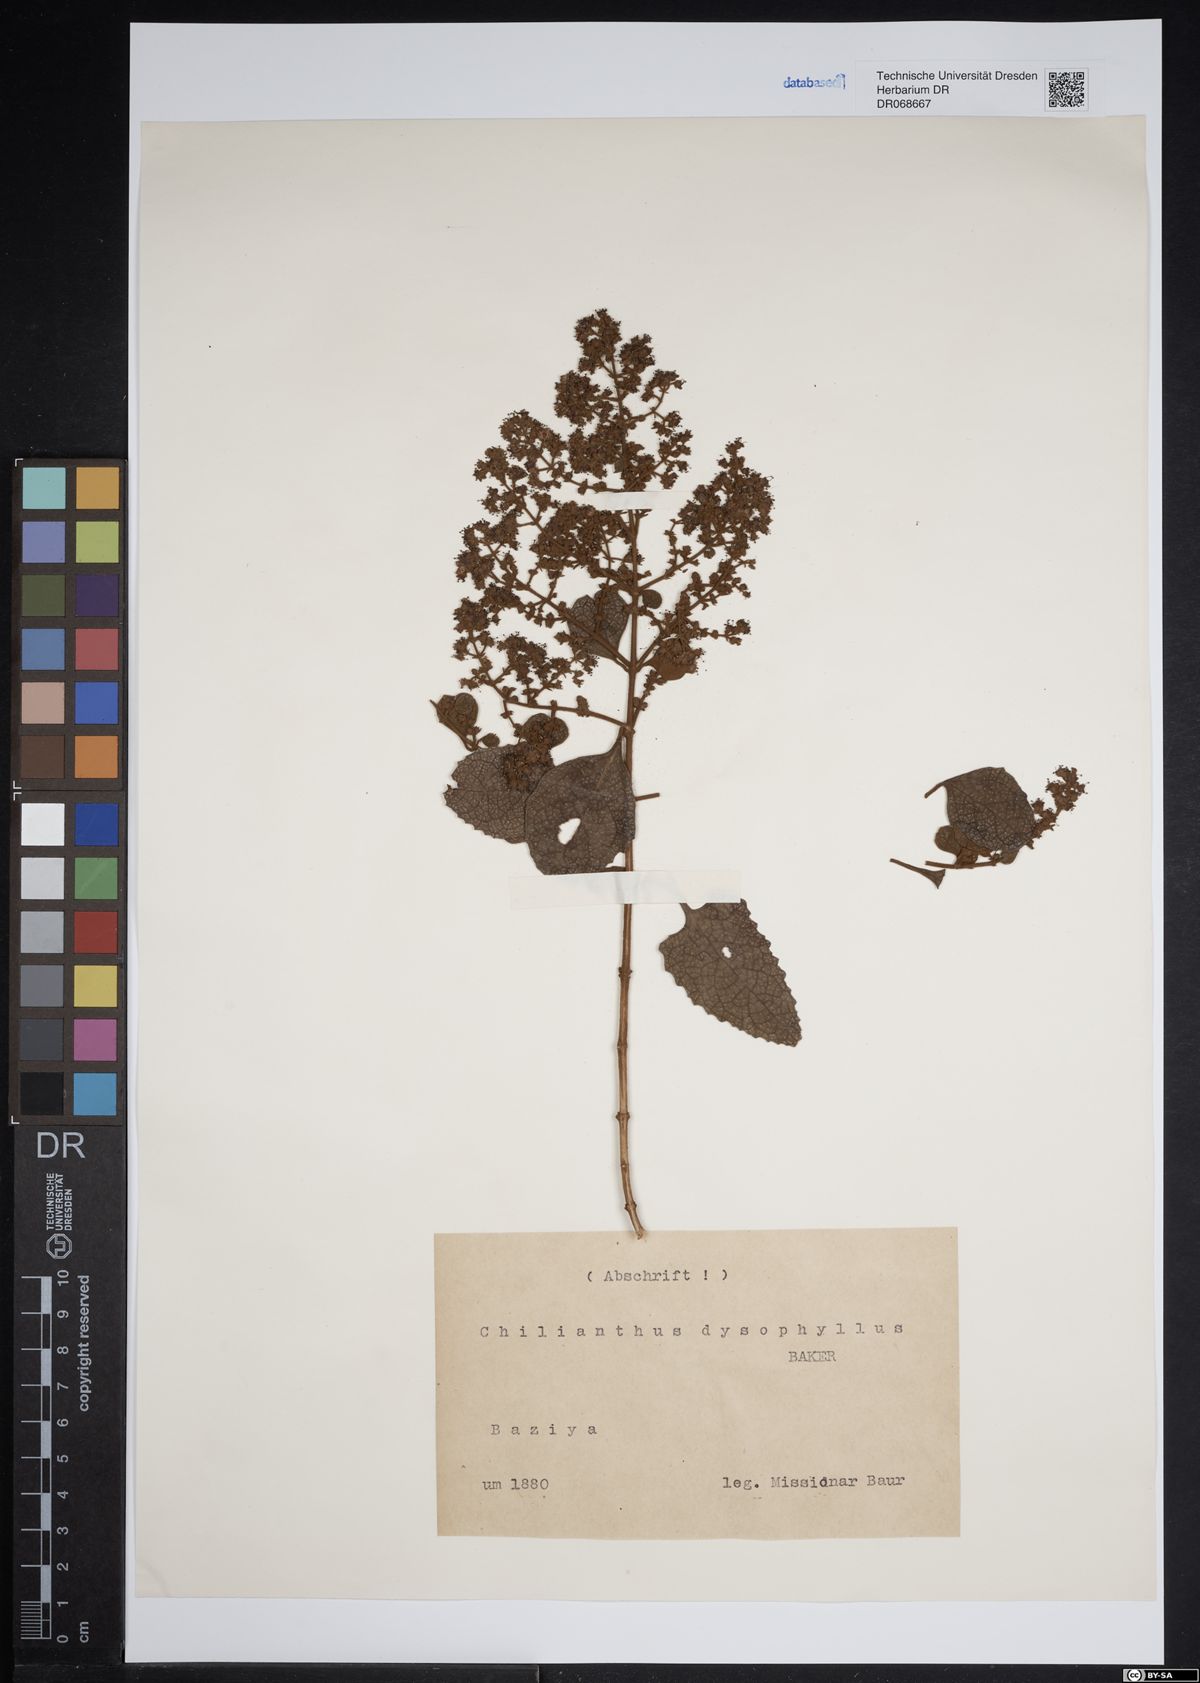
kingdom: Plantae
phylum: Tracheophyta
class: Magnoliopsida
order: Lamiales
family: Scrophulariaceae
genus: Buddleja
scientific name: Buddleja dysophylla
